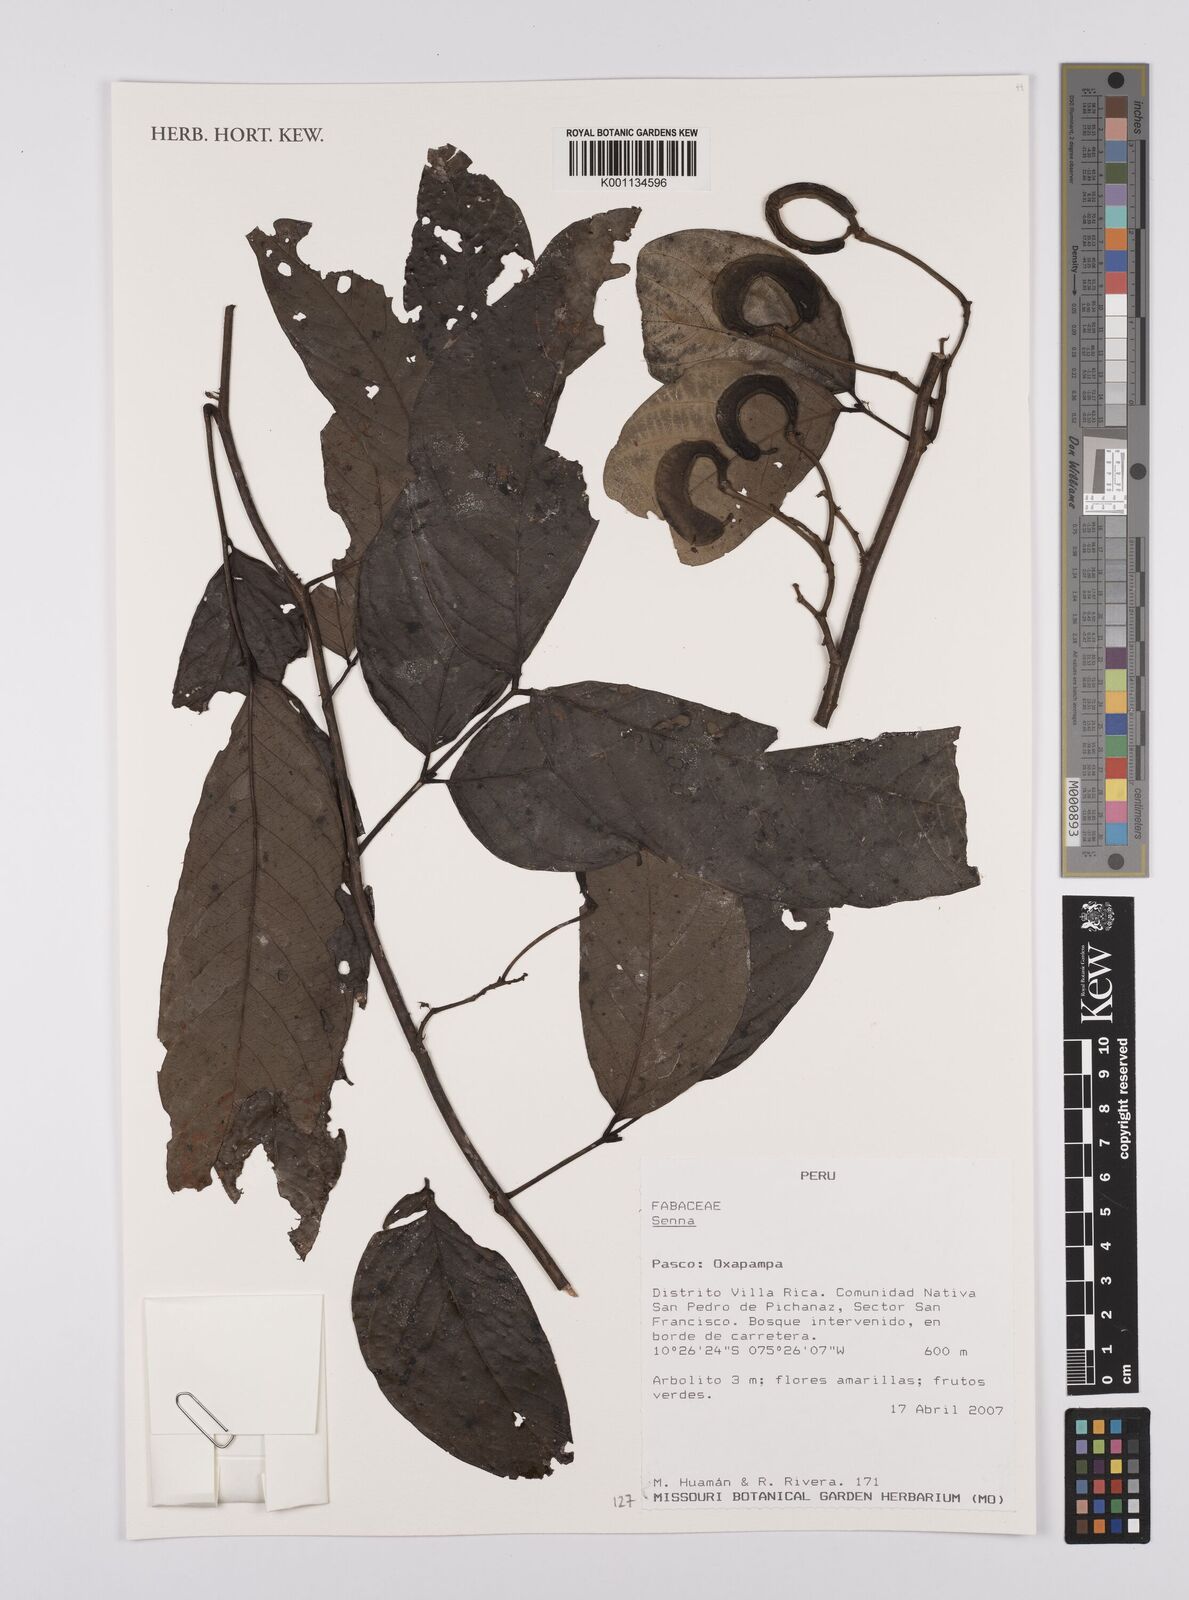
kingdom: Plantae
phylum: Tracheophyta
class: Magnoliopsida
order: Fabales
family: Fabaceae
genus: Senna
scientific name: Senna
